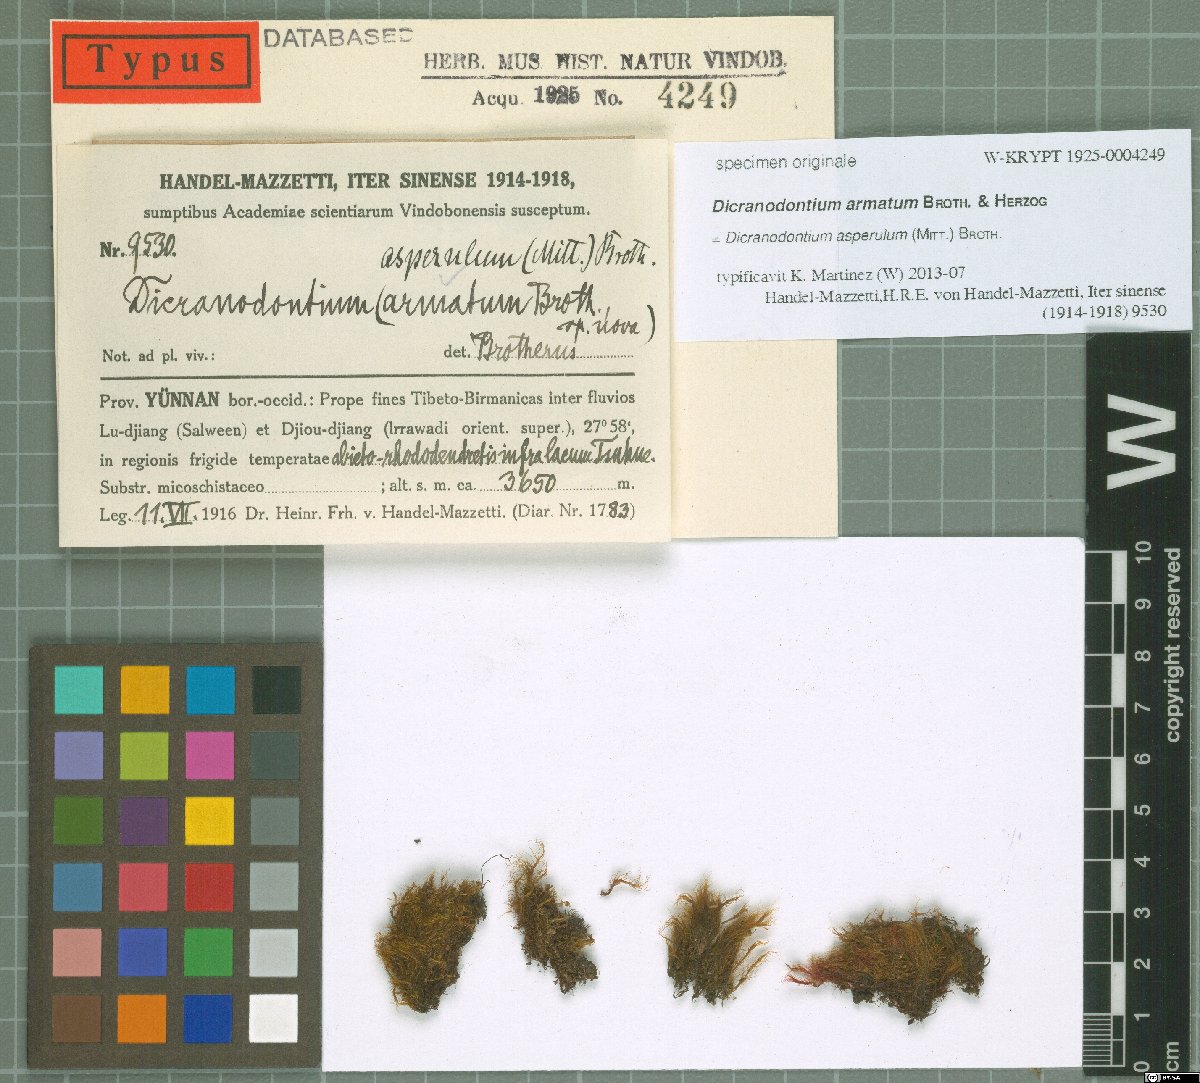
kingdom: Plantae
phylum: Bryophyta
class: Bryopsida
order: Dicranales
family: Dicranaceae
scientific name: Dicranaceae
